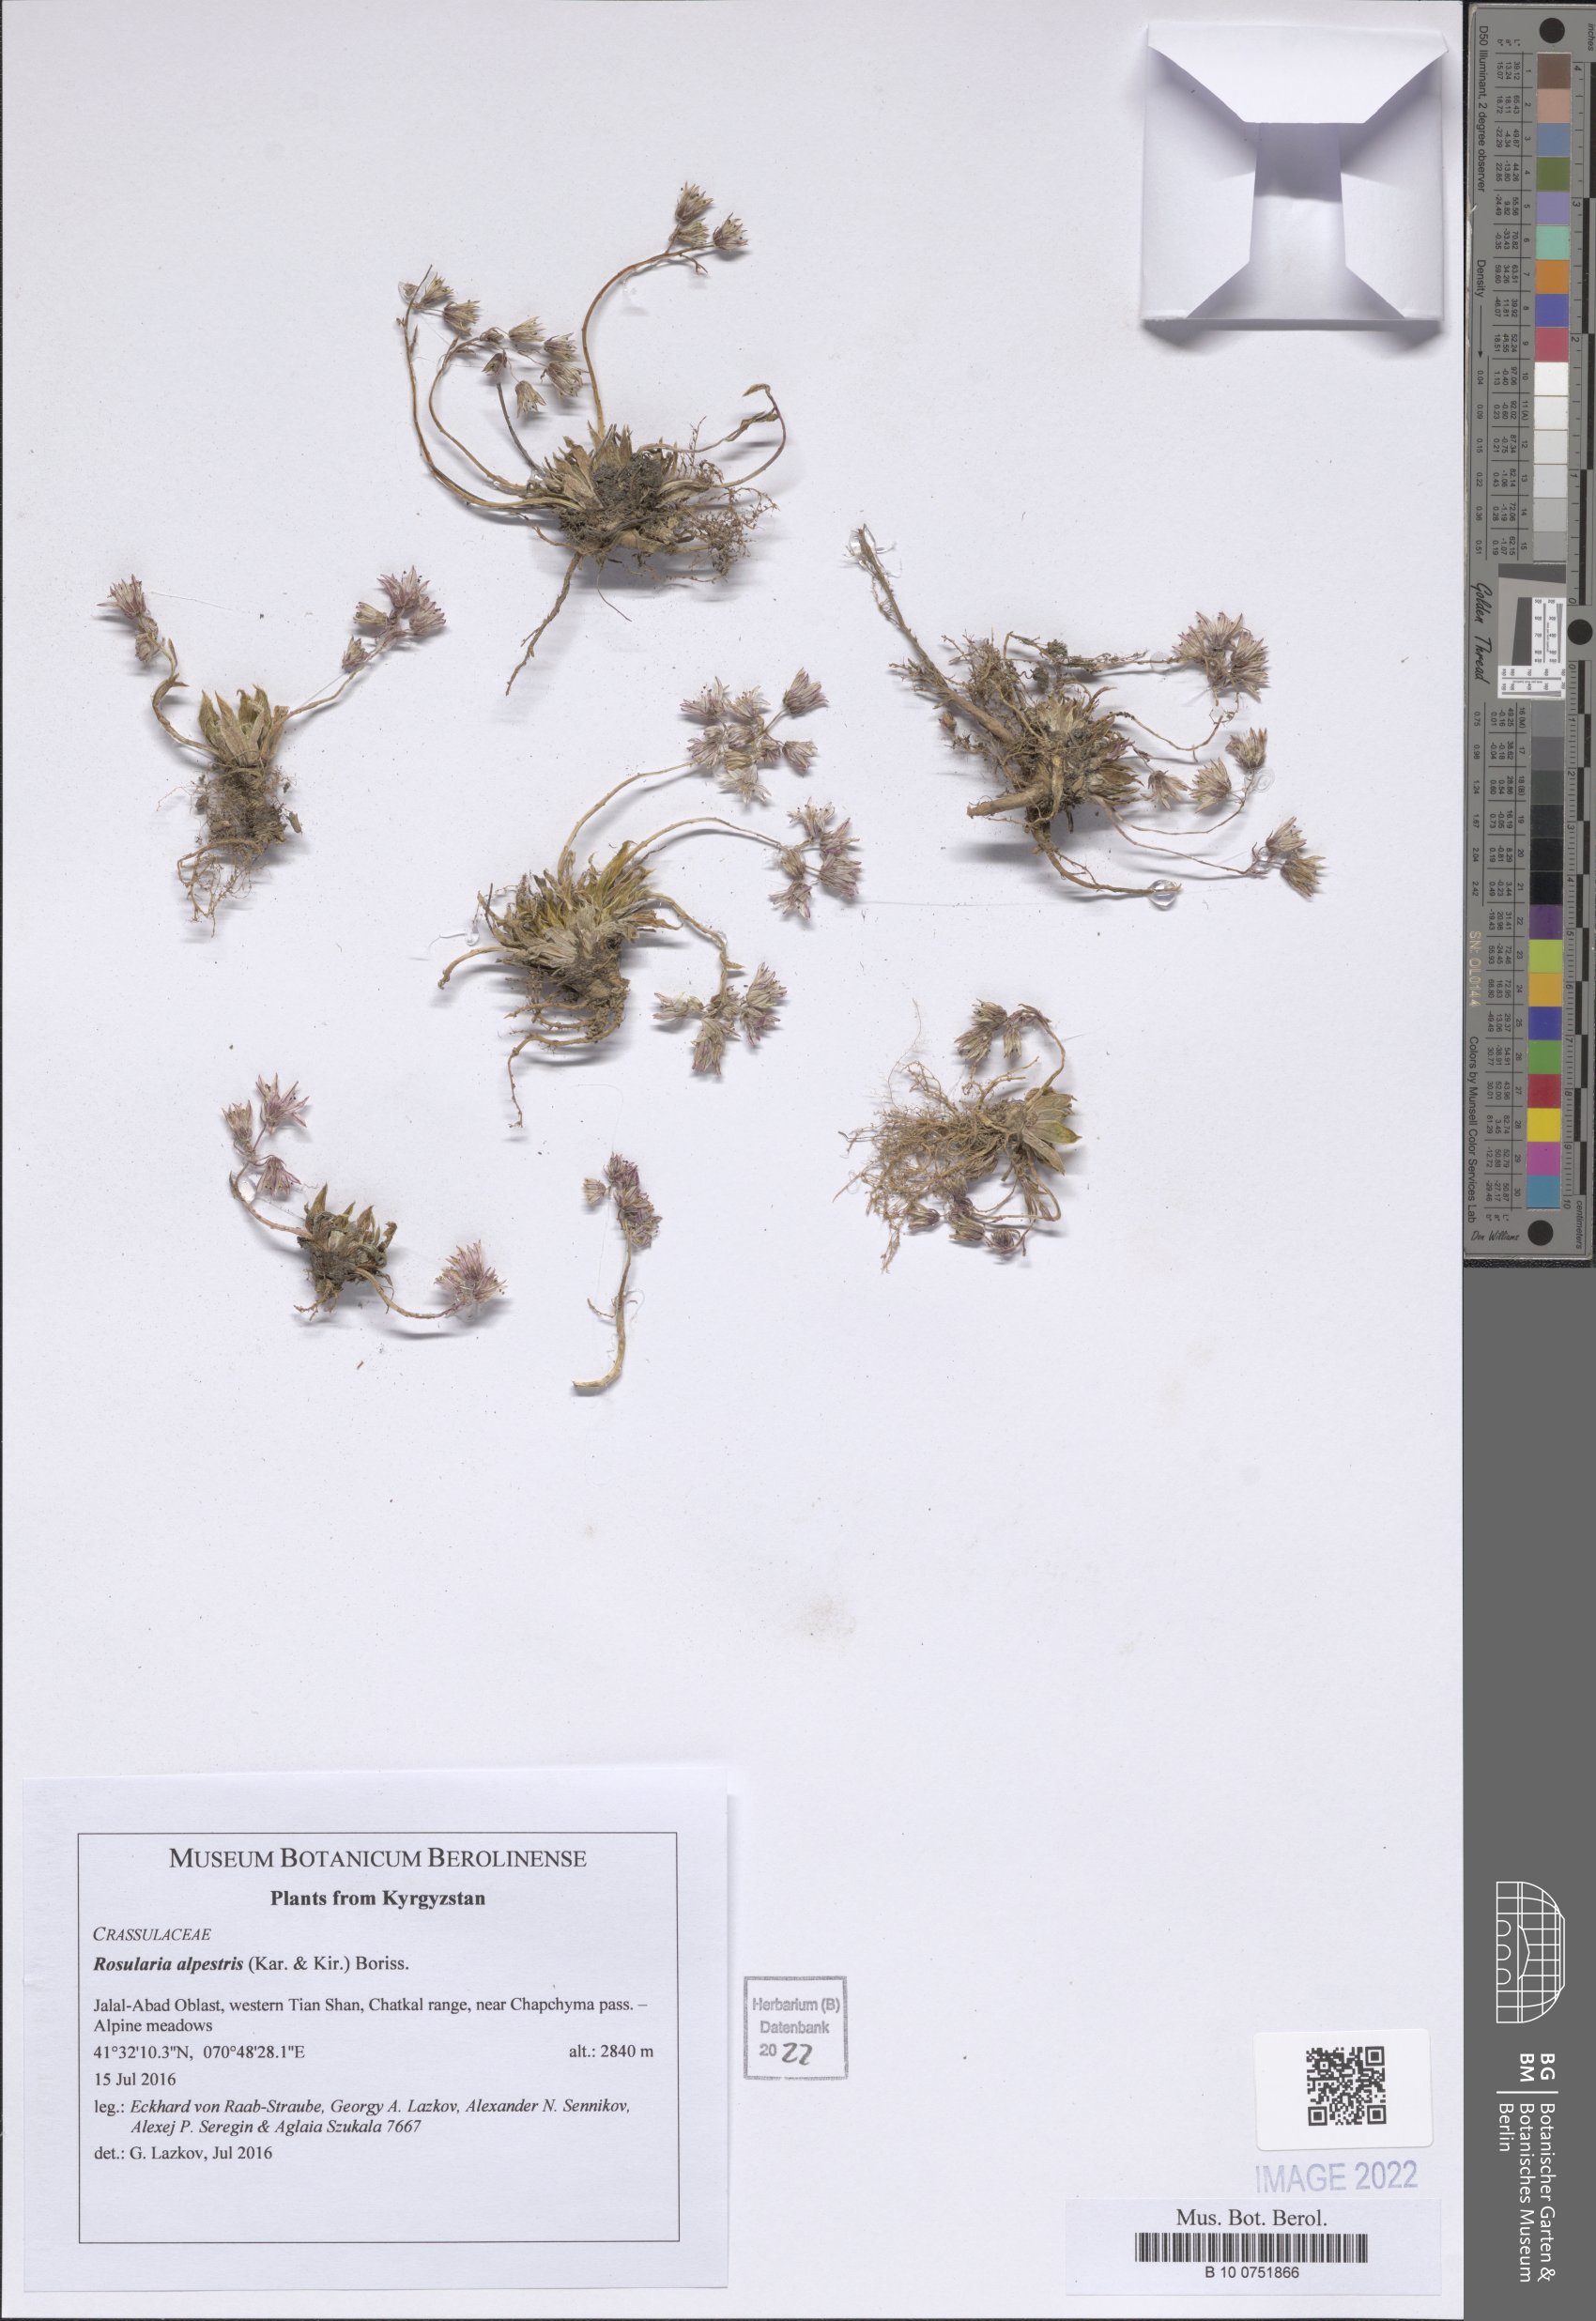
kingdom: Plantae
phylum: Tracheophyta
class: Magnoliopsida
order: Saxifragales
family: Crassulaceae
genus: Rosularia
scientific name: Rosularia alpestris
